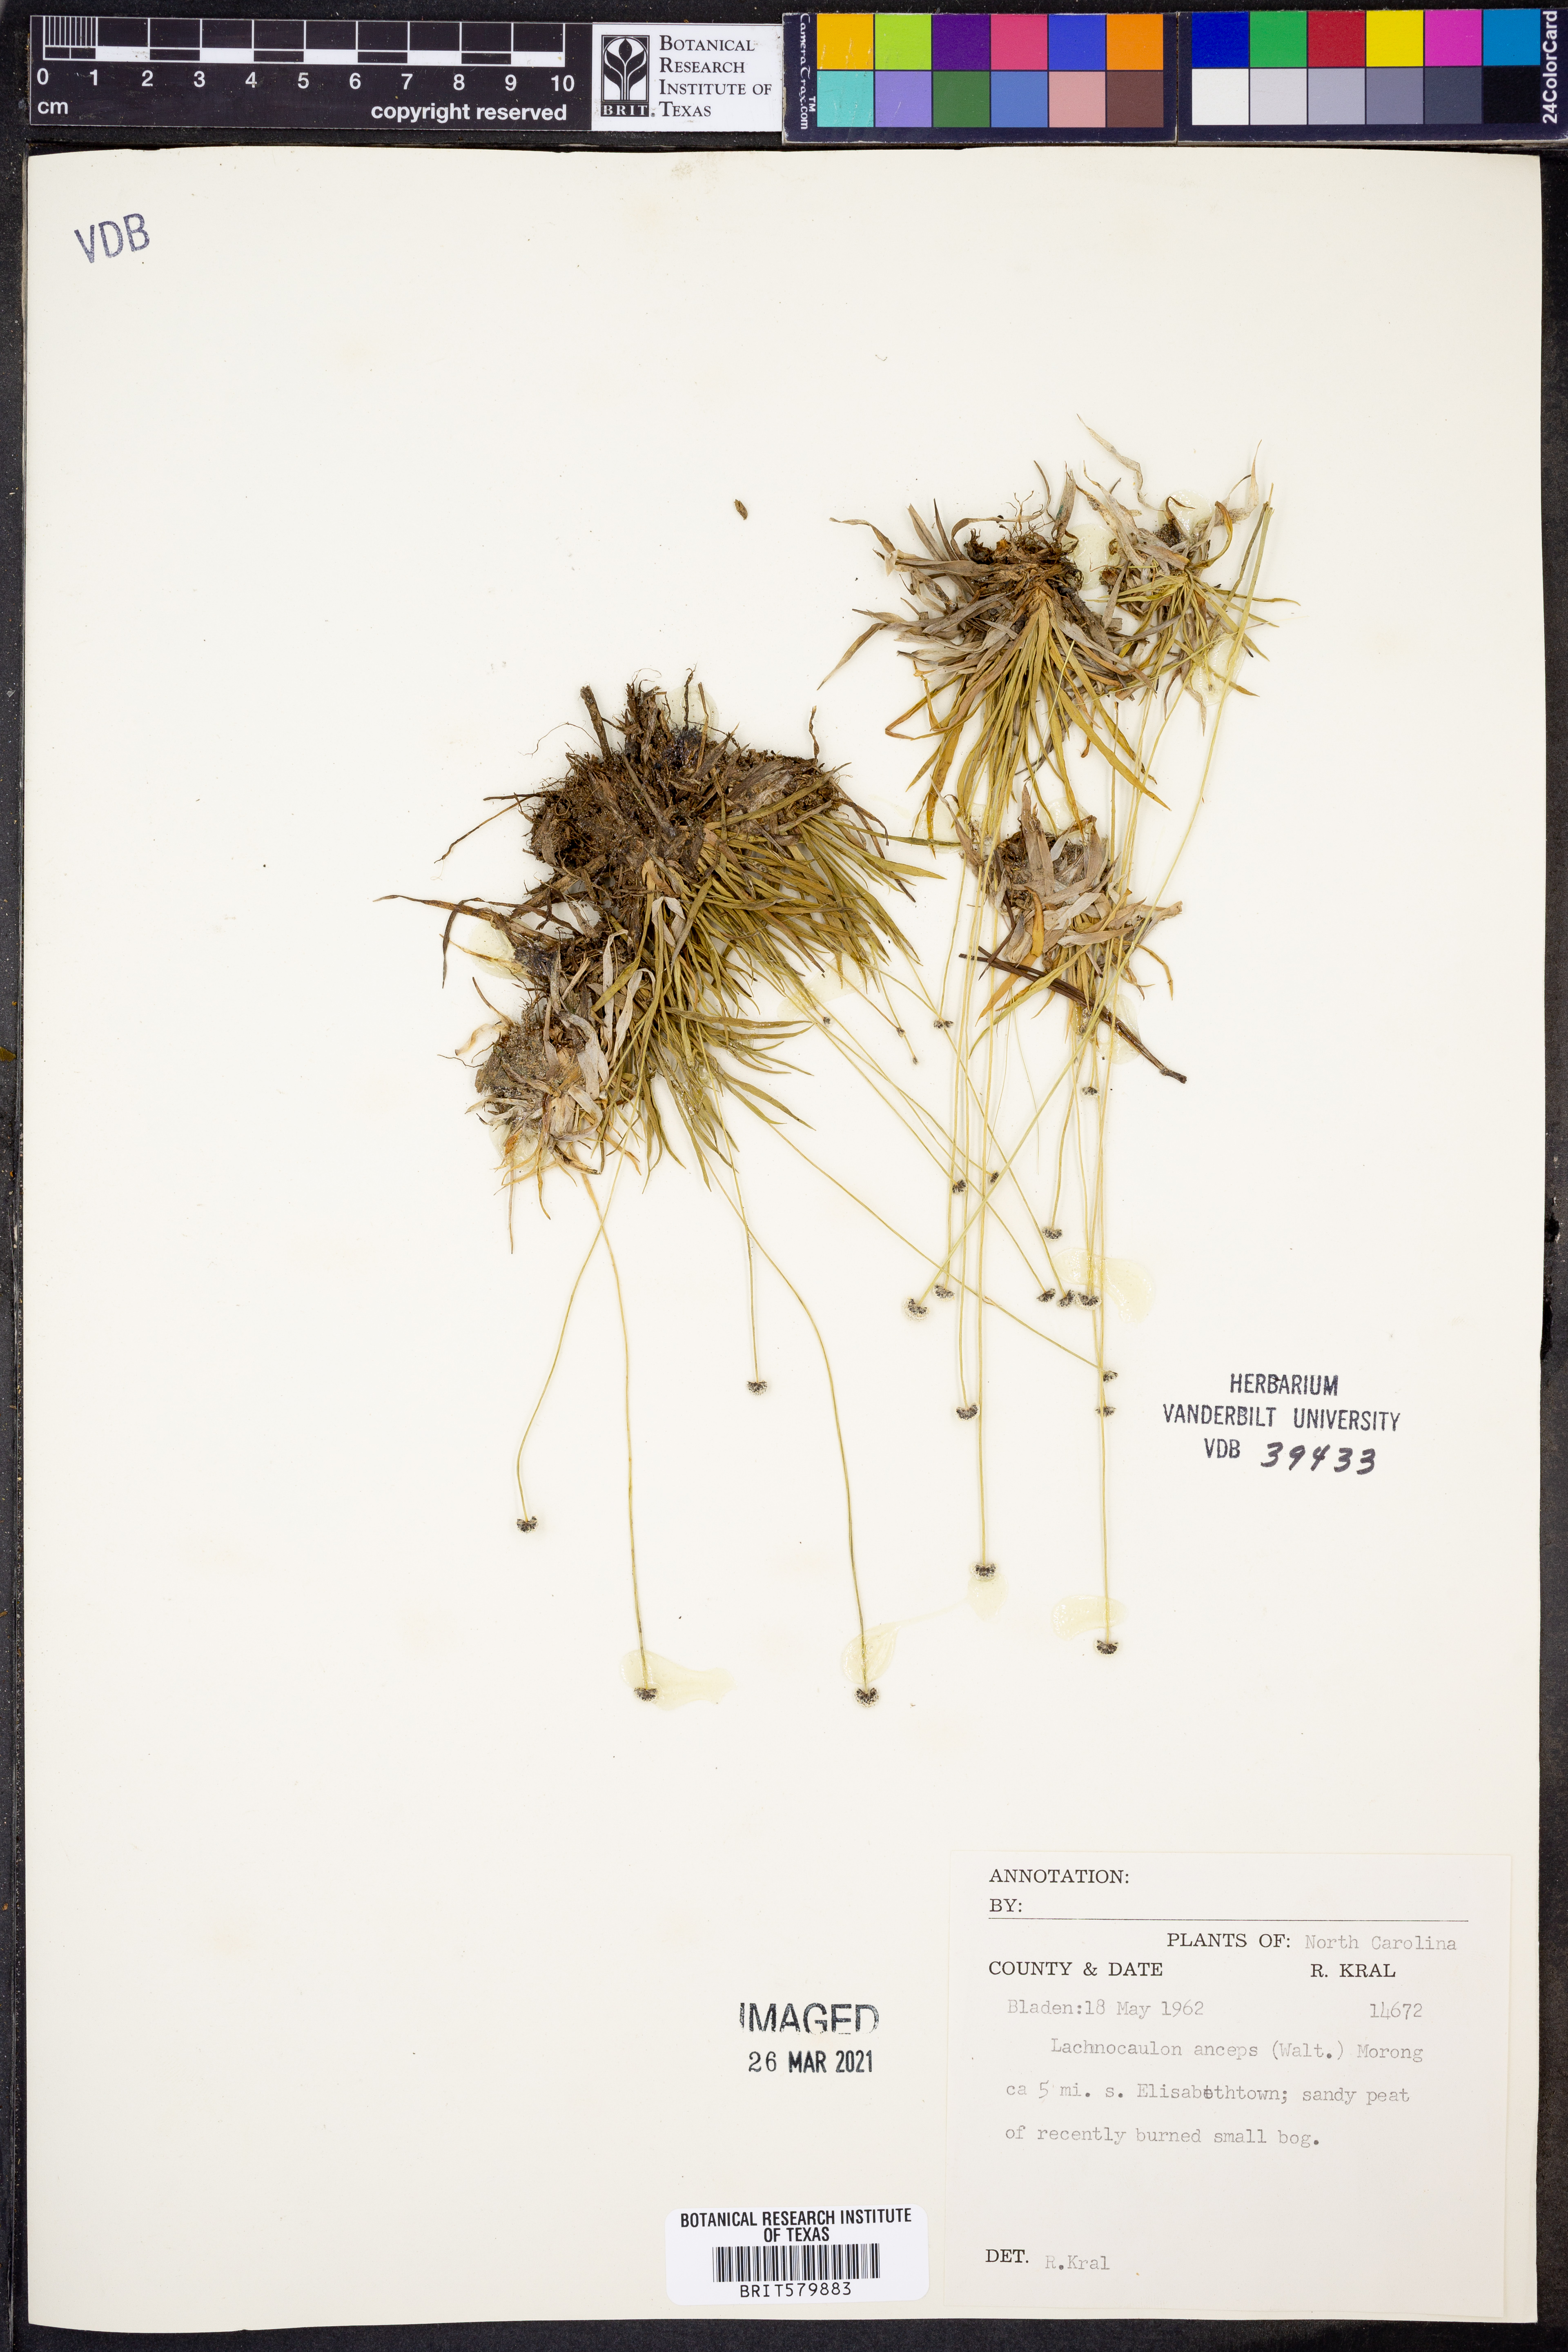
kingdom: Plantae
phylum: Tracheophyta
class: Liliopsida
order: Poales
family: Eriocaulaceae
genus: Paepalanthus
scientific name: Paepalanthus anceps
